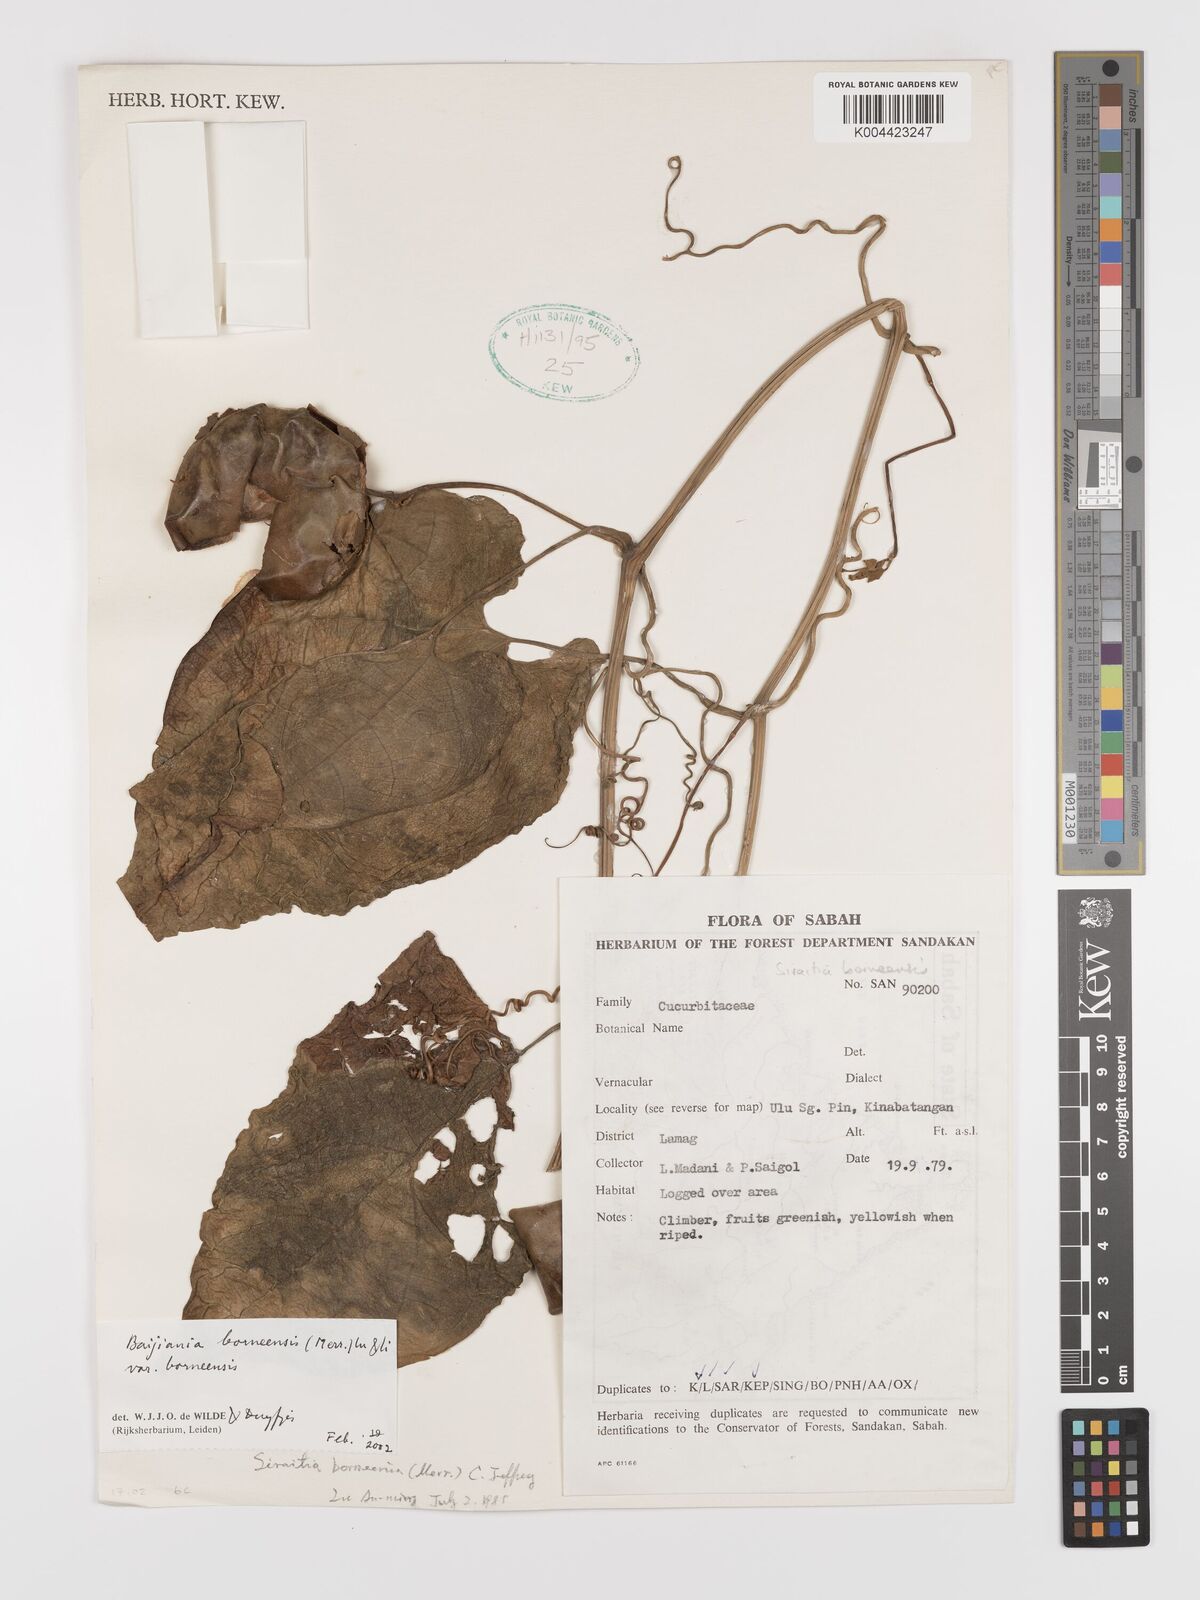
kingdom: Plantae
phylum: Tracheophyta
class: Magnoliopsida
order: Cucurbitales
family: Cucurbitaceae
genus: Baijiania
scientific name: Baijiania borneensis
